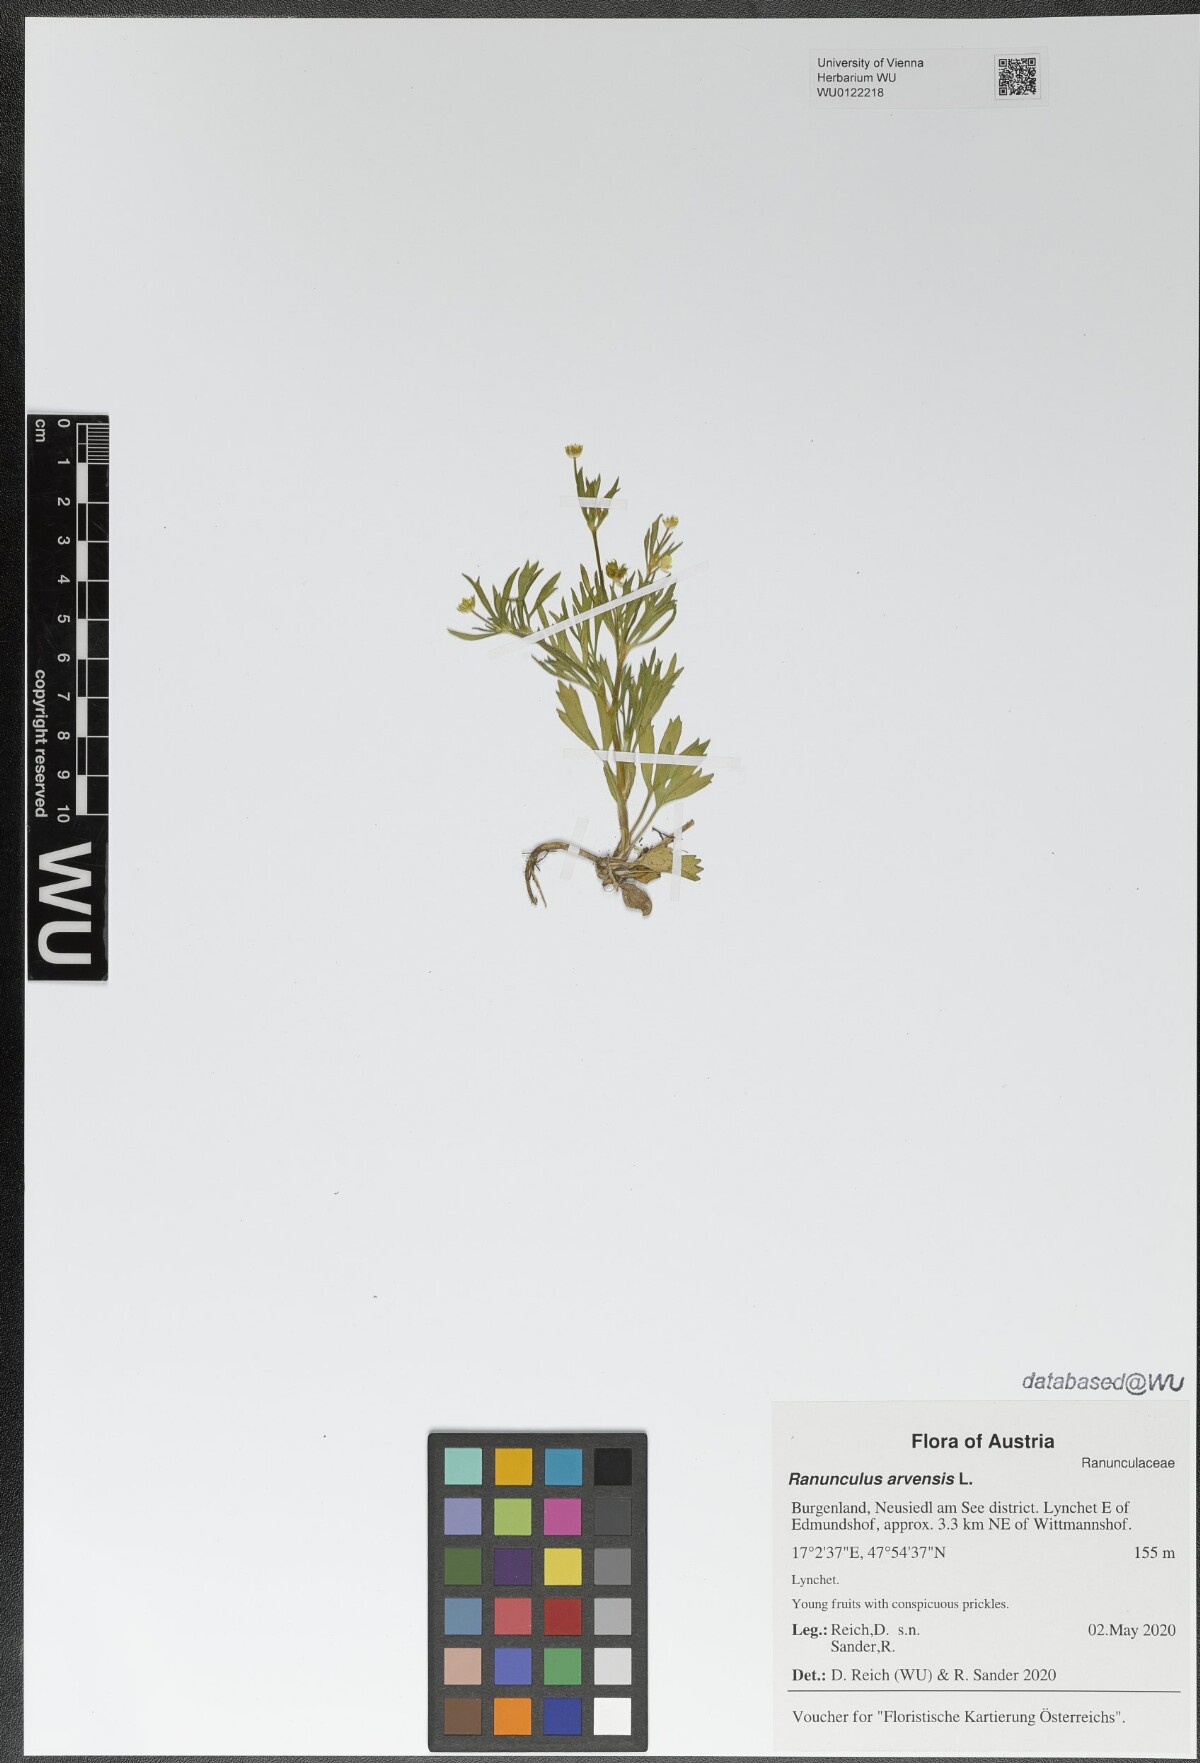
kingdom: Plantae
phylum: Tracheophyta
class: Magnoliopsida
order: Ranunculales
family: Ranunculaceae
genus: Ranunculus
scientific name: Ranunculus arvensis
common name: Corn buttercup
